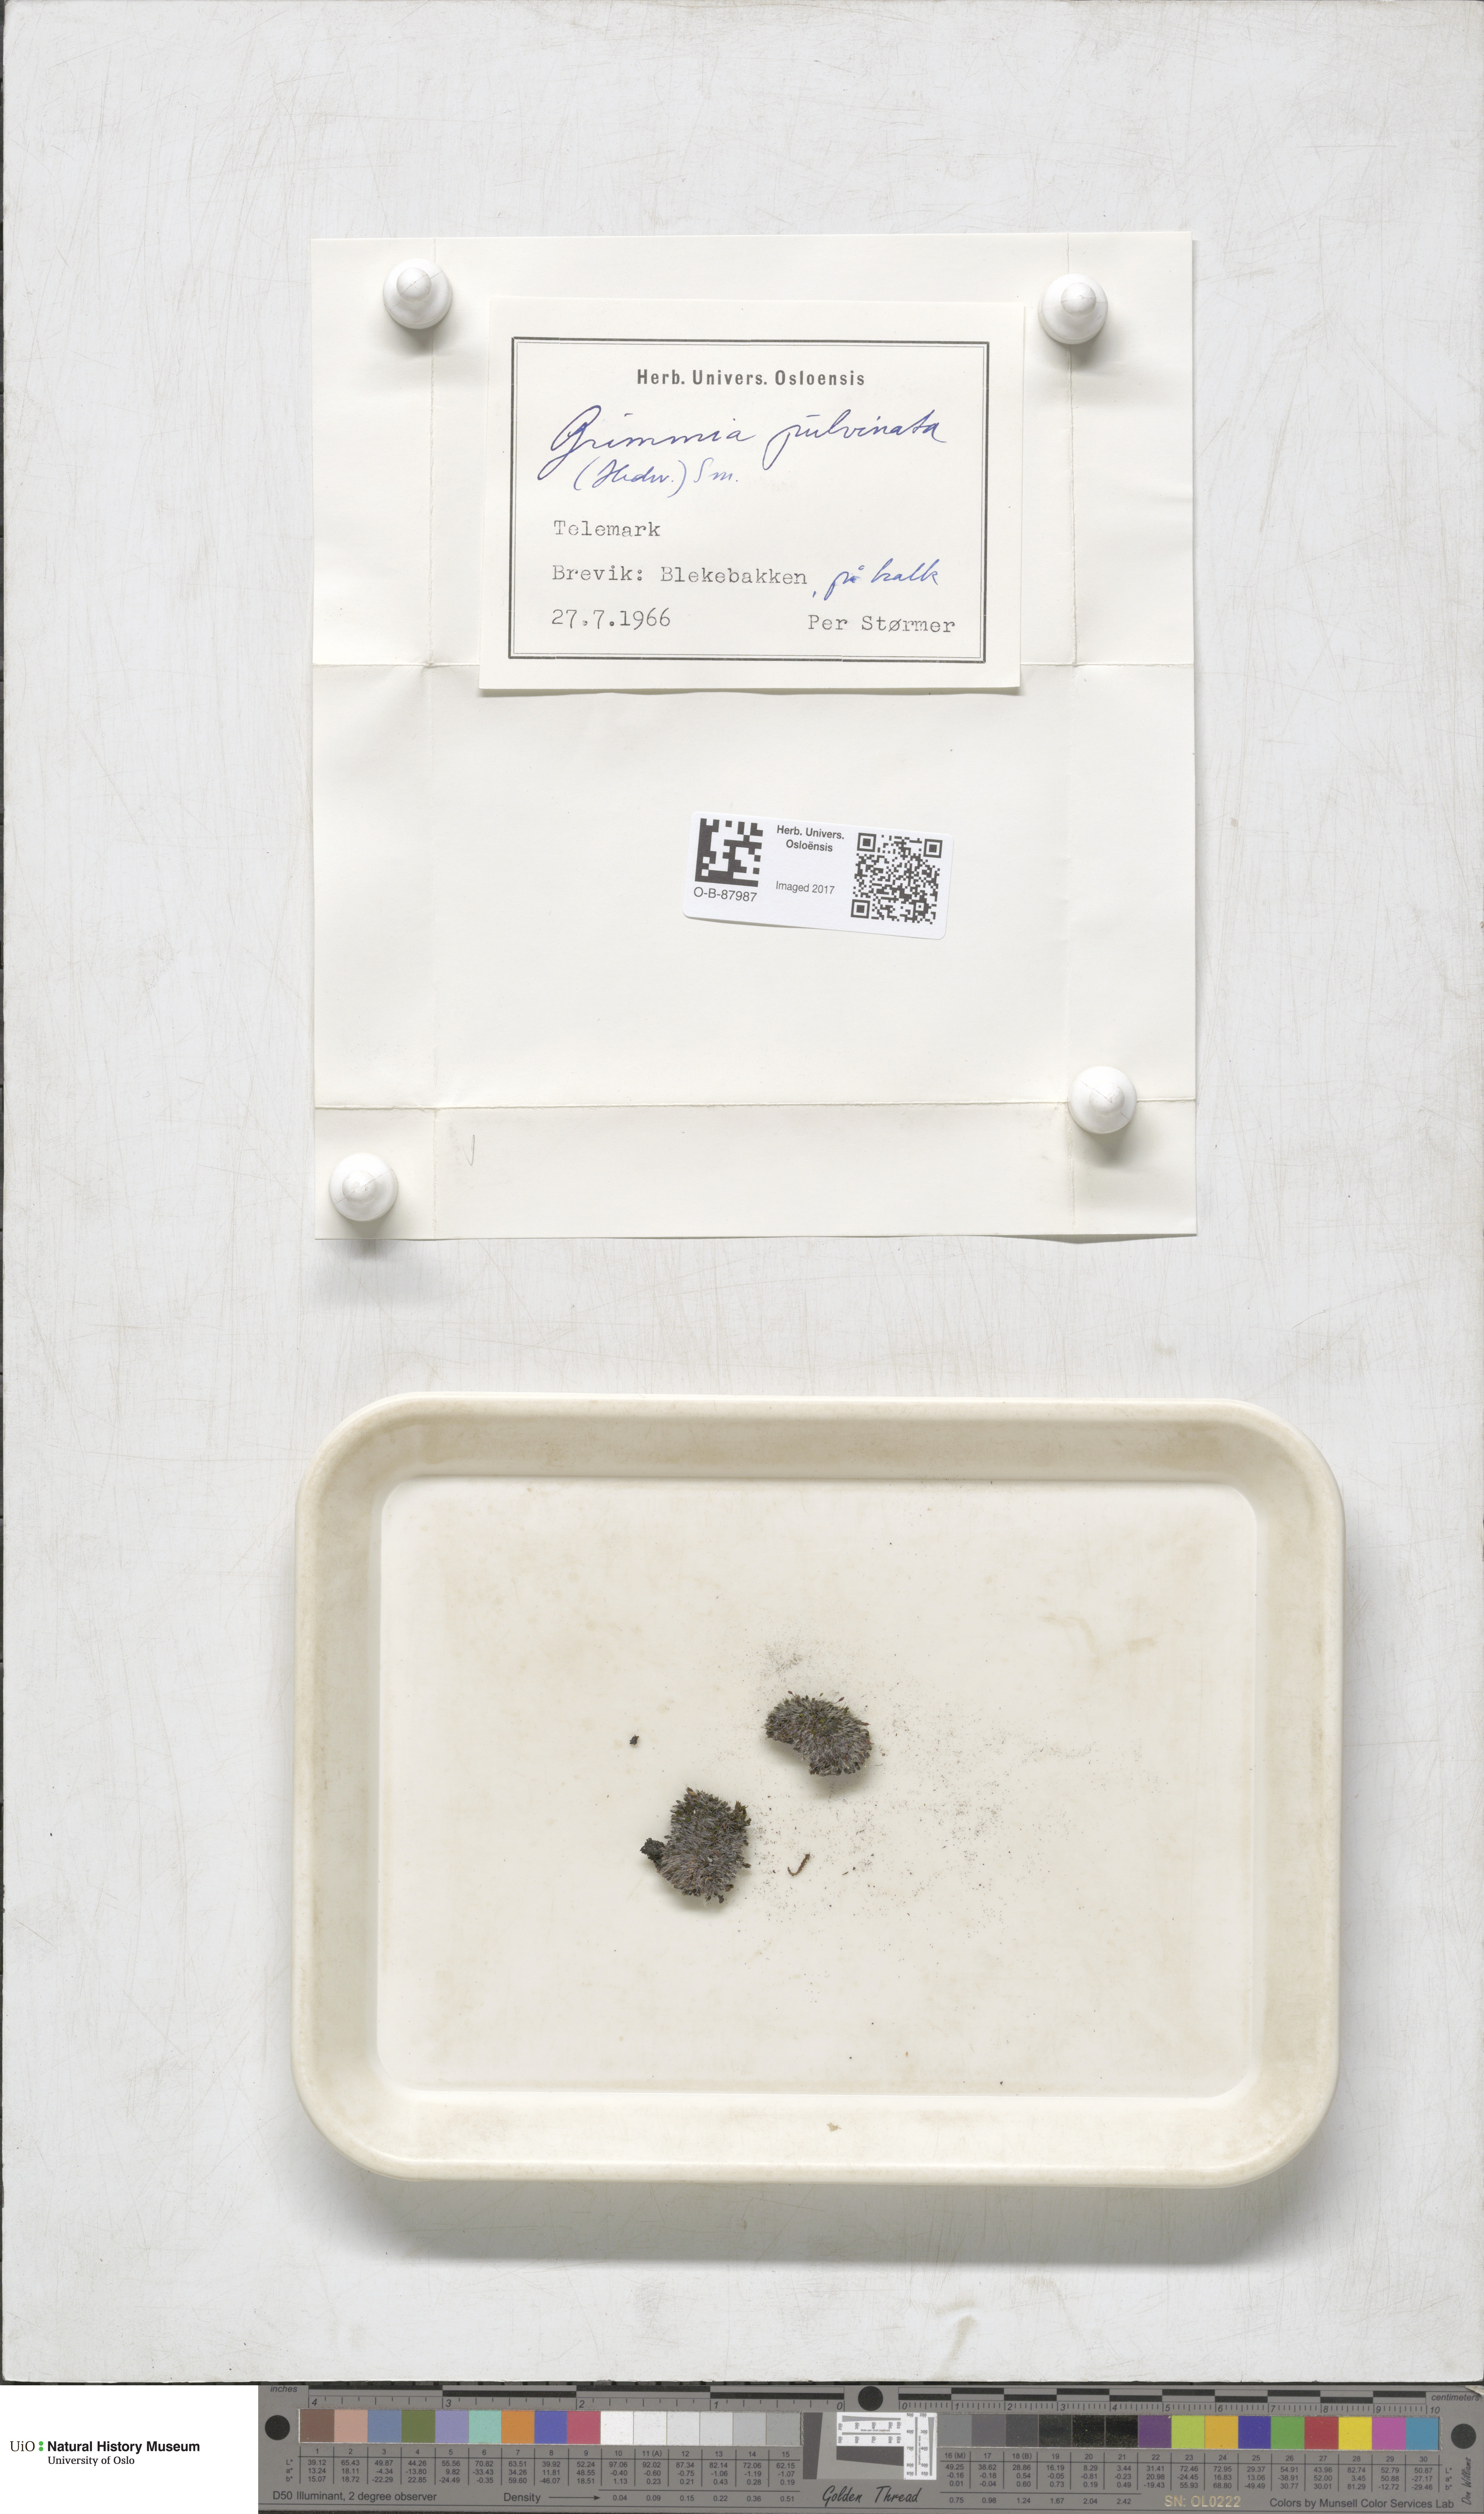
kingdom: Plantae
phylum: Bryophyta
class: Bryopsida
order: Grimmiales
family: Grimmiaceae
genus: Grimmia
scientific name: Grimmia pulvinata
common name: Grey-cushioned grimmia
